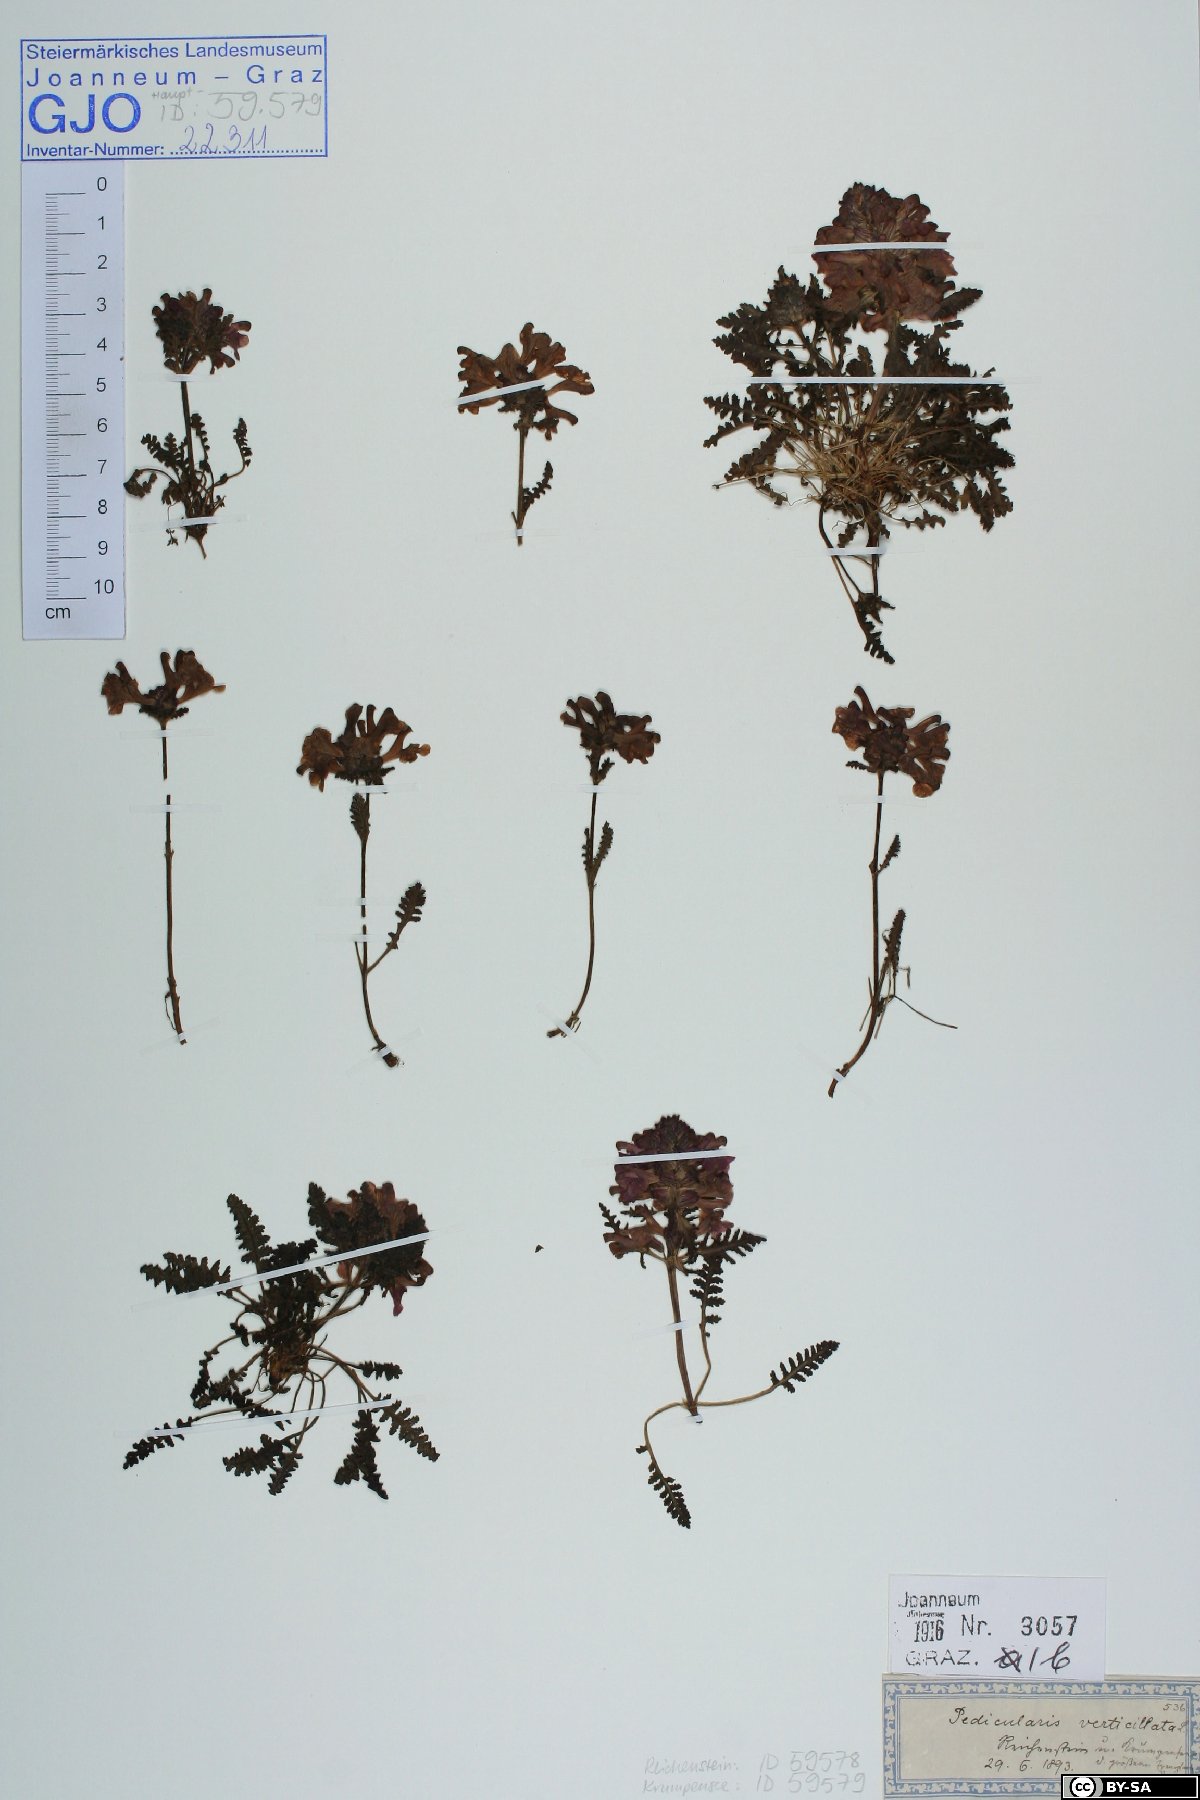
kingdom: Plantae
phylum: Tracheophyta
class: Magnoliopsida
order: Lamiales
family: Orobanchaceae
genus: Pedicularis
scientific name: Pedicularis verticillata
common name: Whorled lousewort
